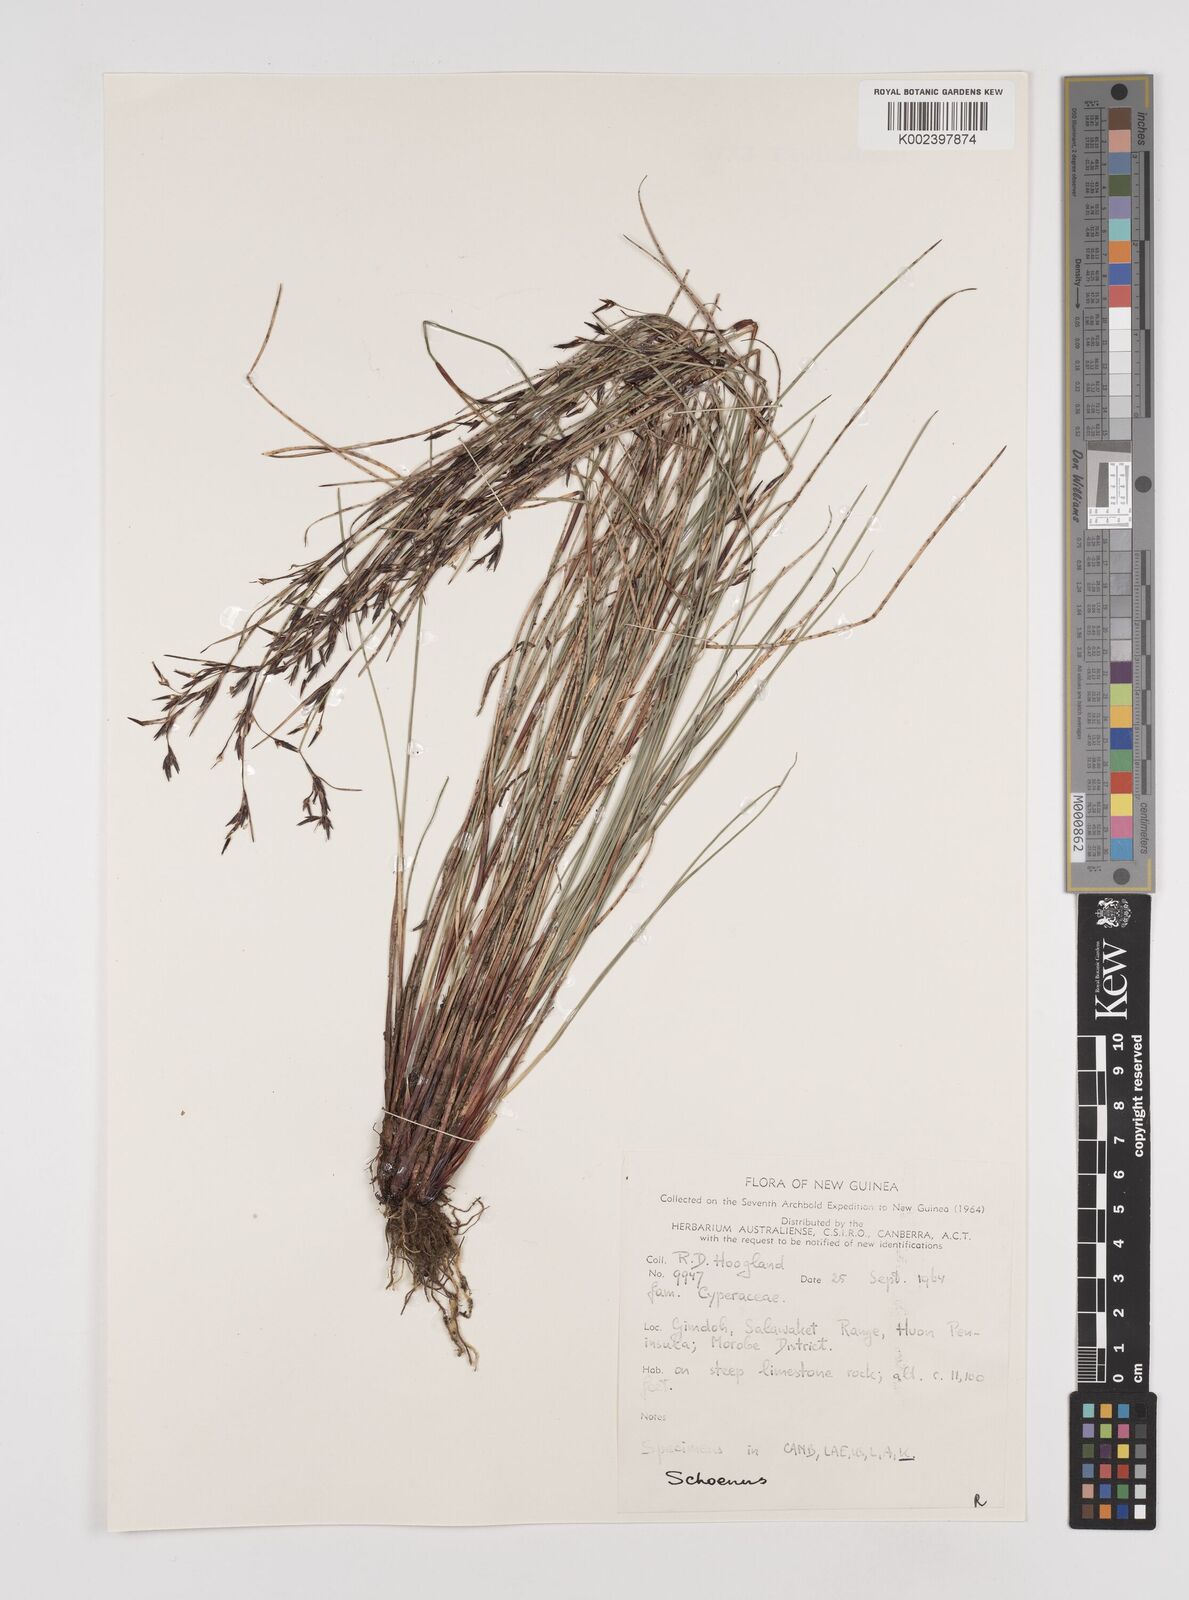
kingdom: Plantae
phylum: Tracheophyta
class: Liliopsida
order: Poales
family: Cyperaceae
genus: Schoenus
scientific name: Schoenus curvulus
